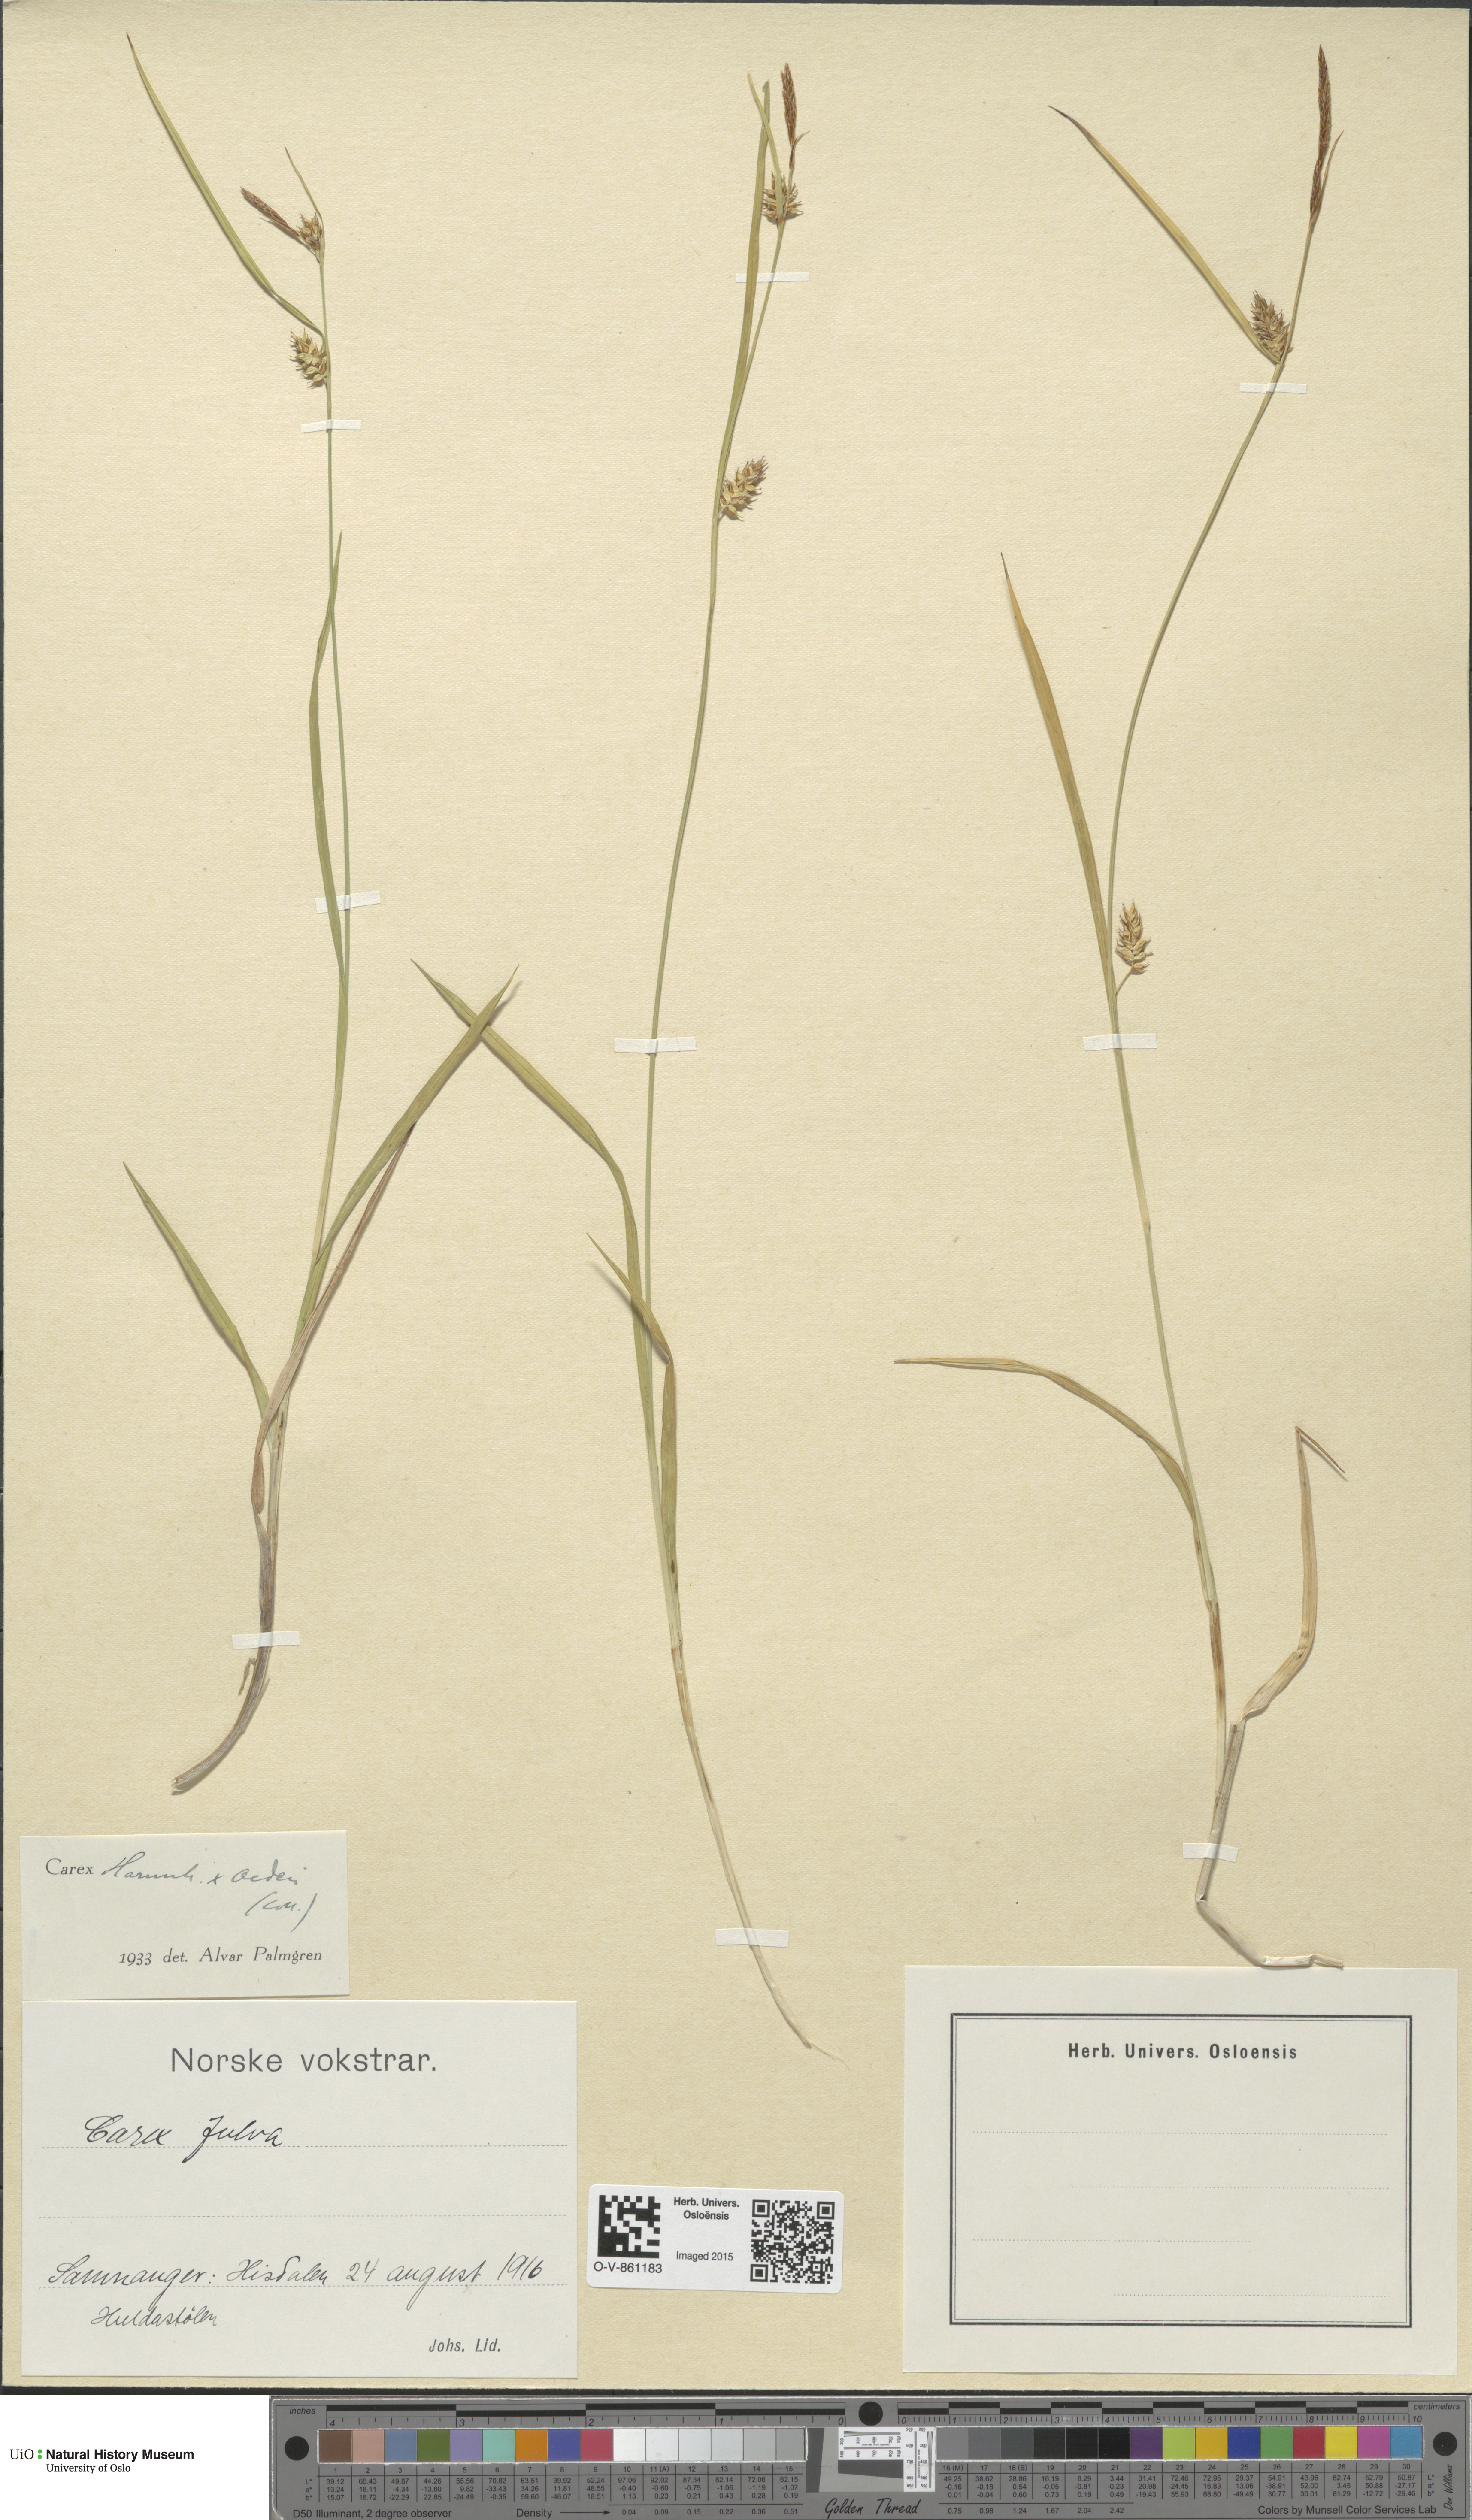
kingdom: Plantae
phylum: Tracheophyta
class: Liliopsida
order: Poales
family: Cyperaceae
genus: Carex
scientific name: Carex
